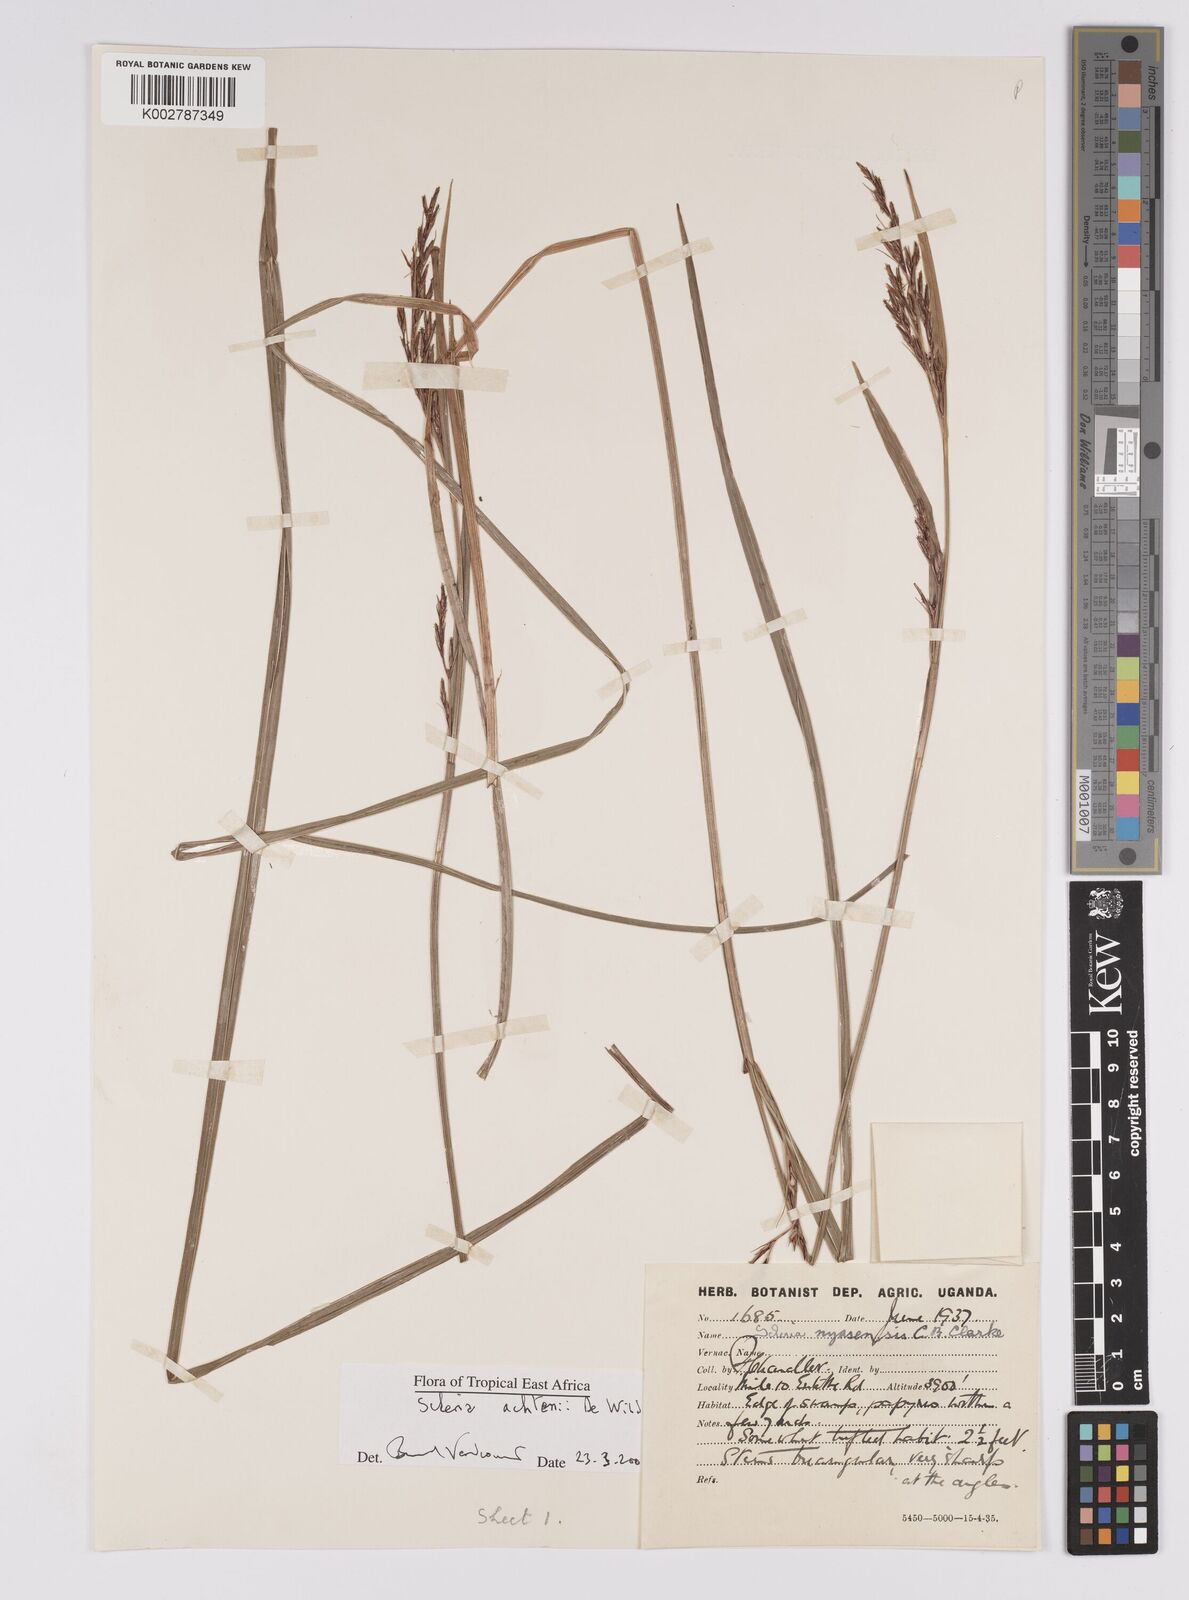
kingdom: Plantae
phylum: Tracheophyta
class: Liliopsida
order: Poales
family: Cyperaceae
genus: Scleria
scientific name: Scleria achtenii
